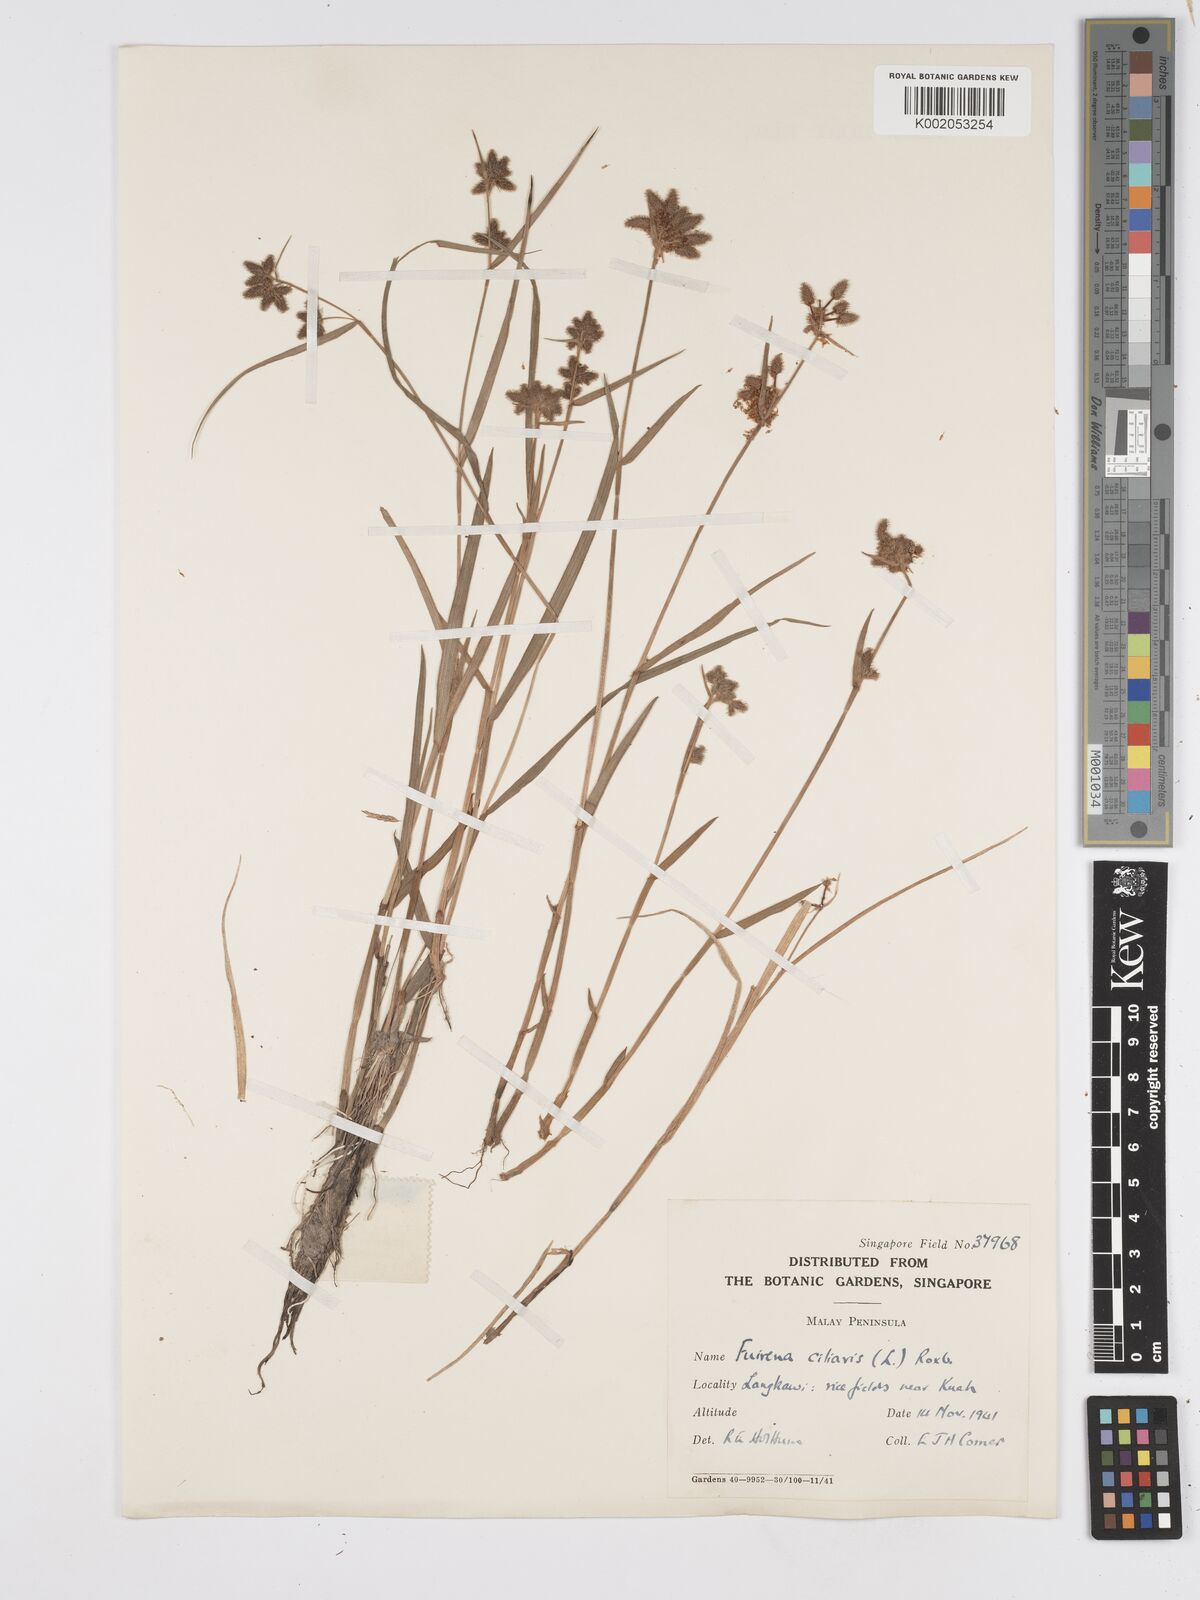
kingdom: Plantae
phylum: Tracheophyta
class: Liliopsida
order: Poales
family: Cyperaceae
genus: Fuirena
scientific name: Fuirena ciliaris
